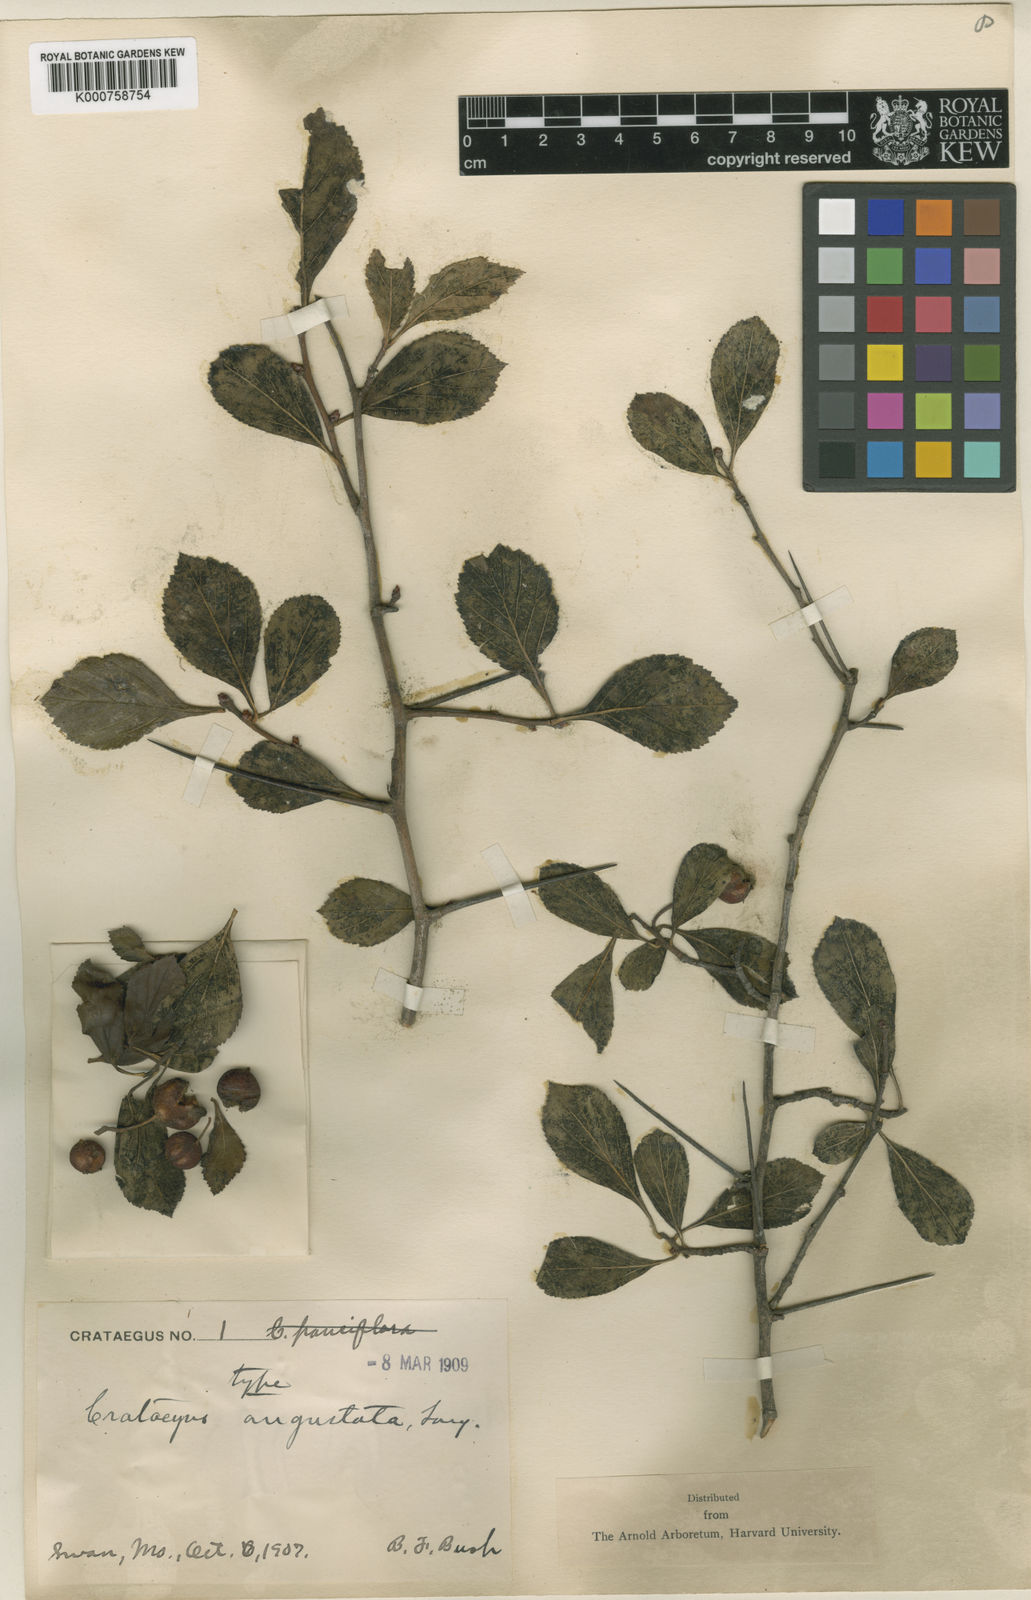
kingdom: Plantae
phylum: Tracheophyta
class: Magnoliopsida
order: Rosales
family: Rosaceae
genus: Crataegus
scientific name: Crataegus angustata
